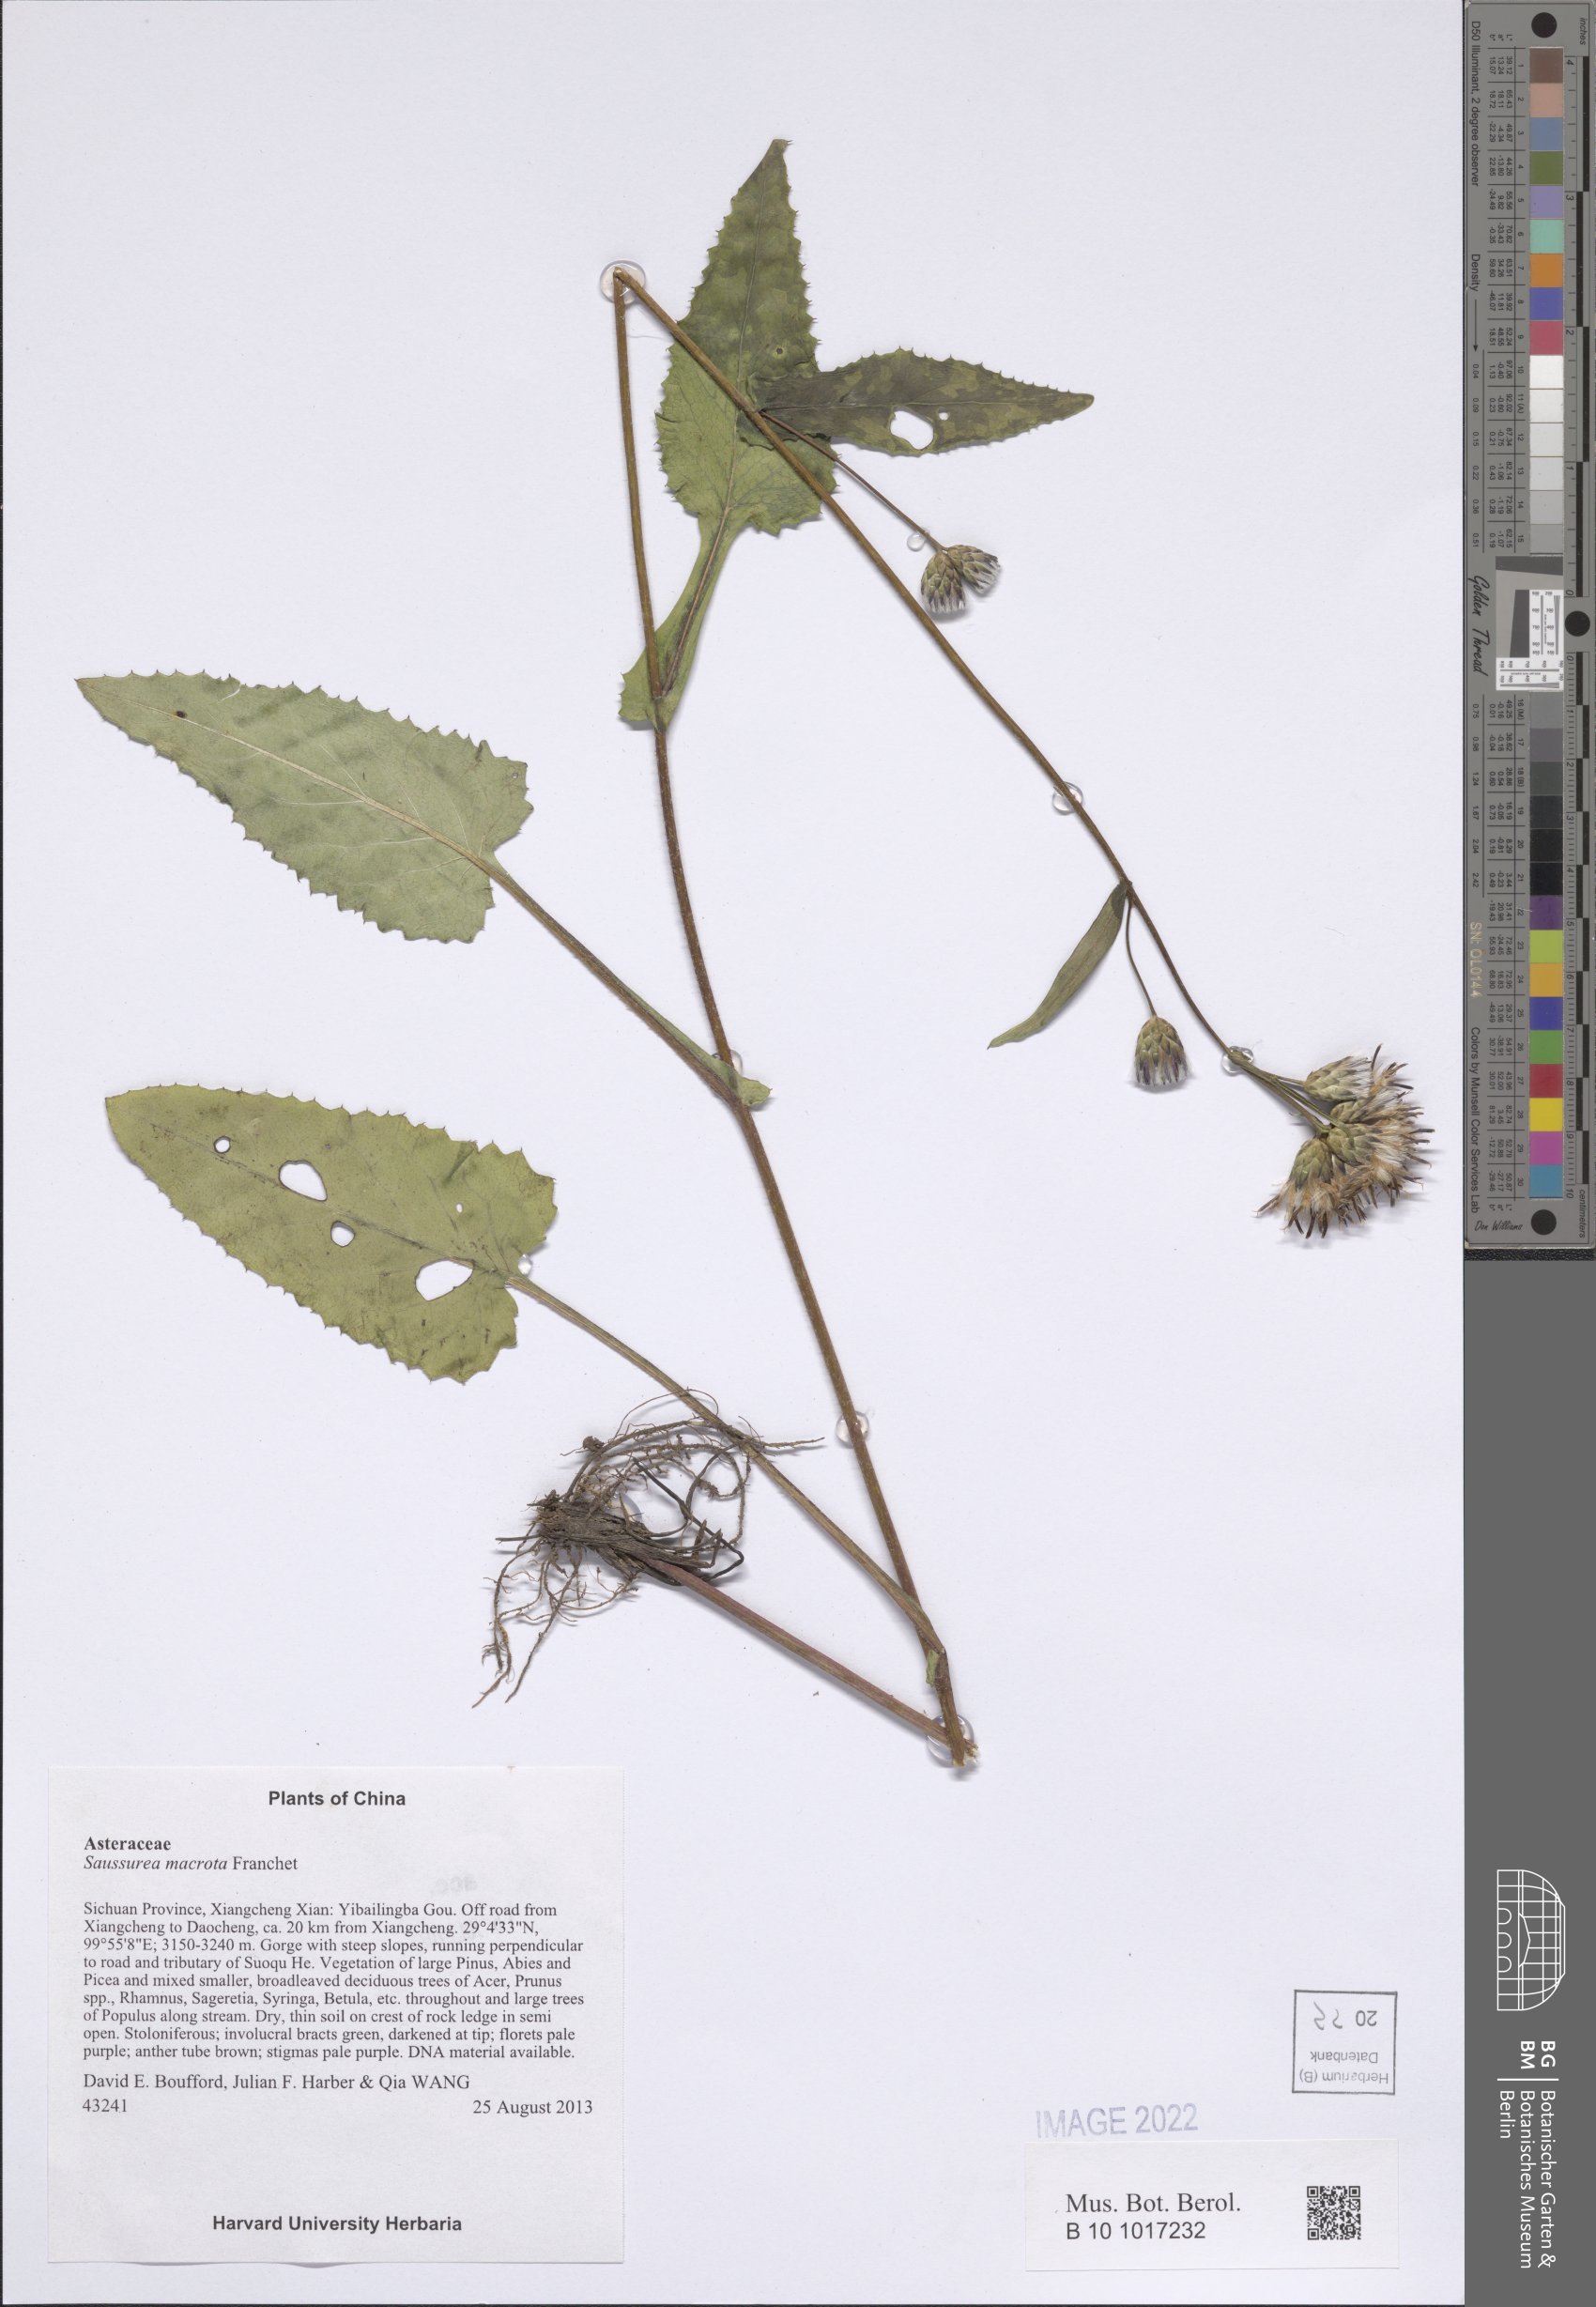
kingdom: Plantae
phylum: Tracheophyta
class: Magnoliopsida
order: Asterales
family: Asteraceae
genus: Saussurea
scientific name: Saussurea macrota
